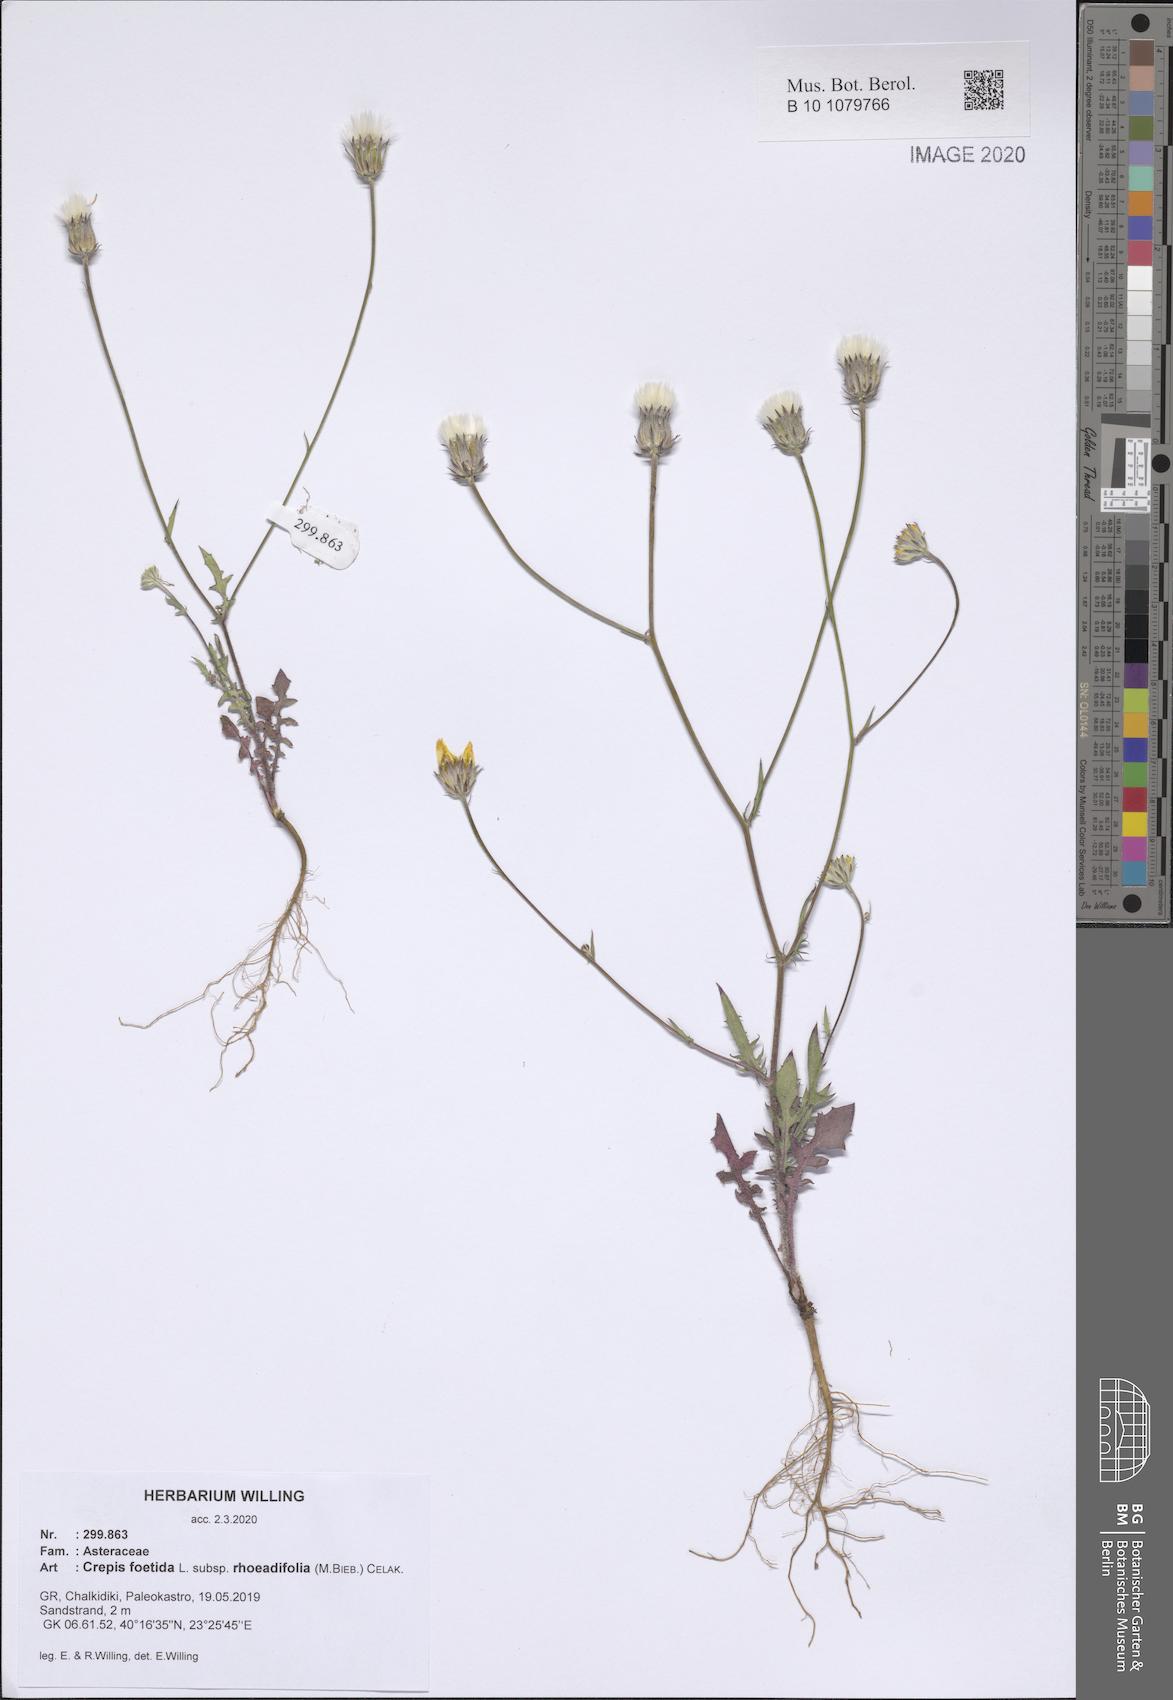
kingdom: Plantae
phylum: Tracheophyta
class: Magnoliopsida
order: Asterales
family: Asteraceae
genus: Crepis
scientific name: Crepis foetida
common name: Stinking hawk's-beard
